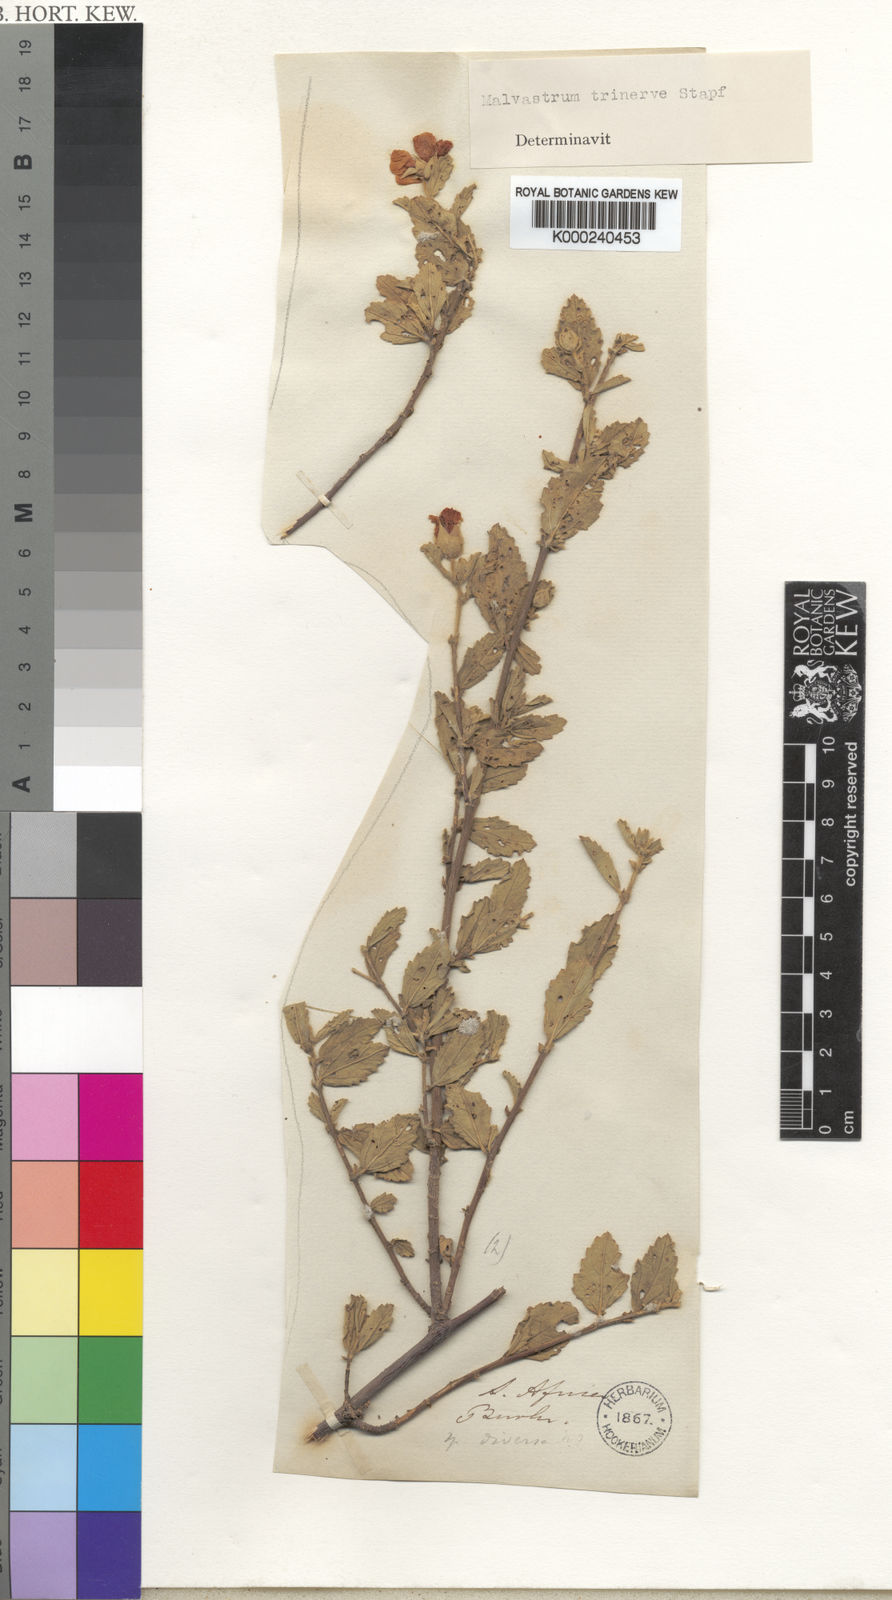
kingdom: Plantae
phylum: Tracheophyta
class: Magnoliopsida
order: Malvales
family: Malvaceae
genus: Anisodontea
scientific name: Anisodontea scabrosa
